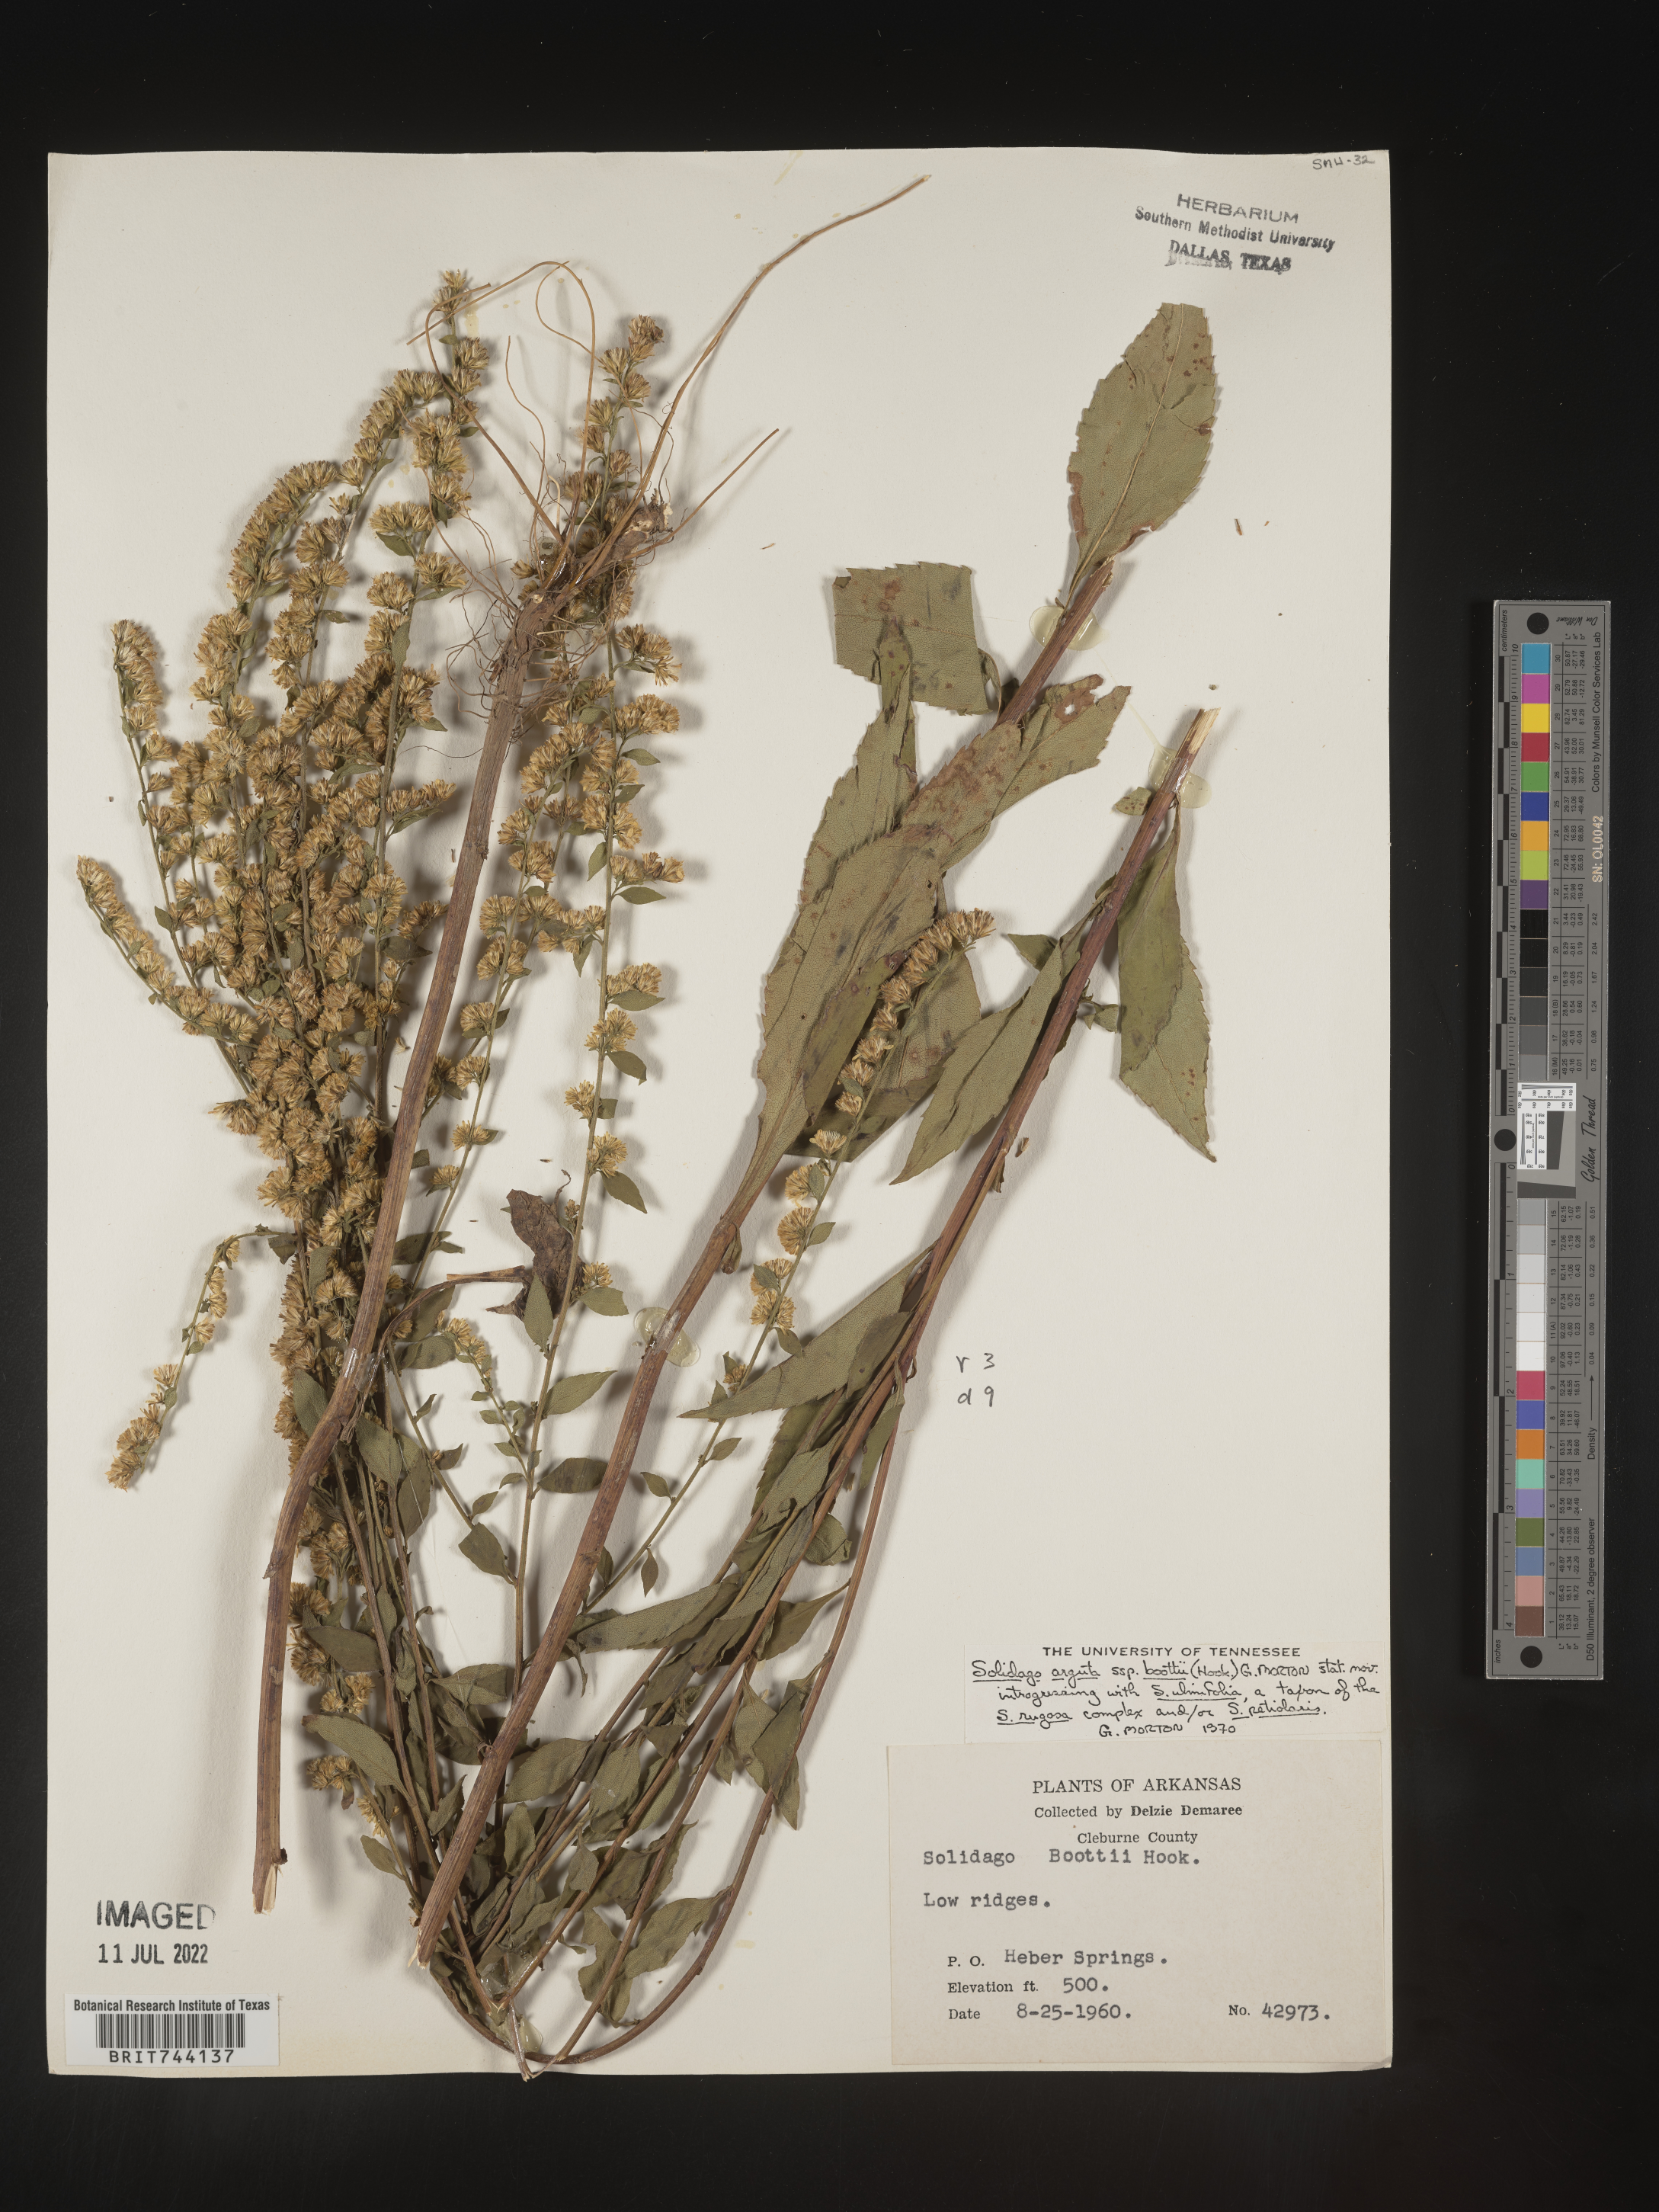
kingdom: Plantae
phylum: Tracheophyta
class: Magnoliopsida
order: Asterales
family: Asteraceae
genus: Solidago
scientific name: Solidago arguta
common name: Atlantic goldenrod
